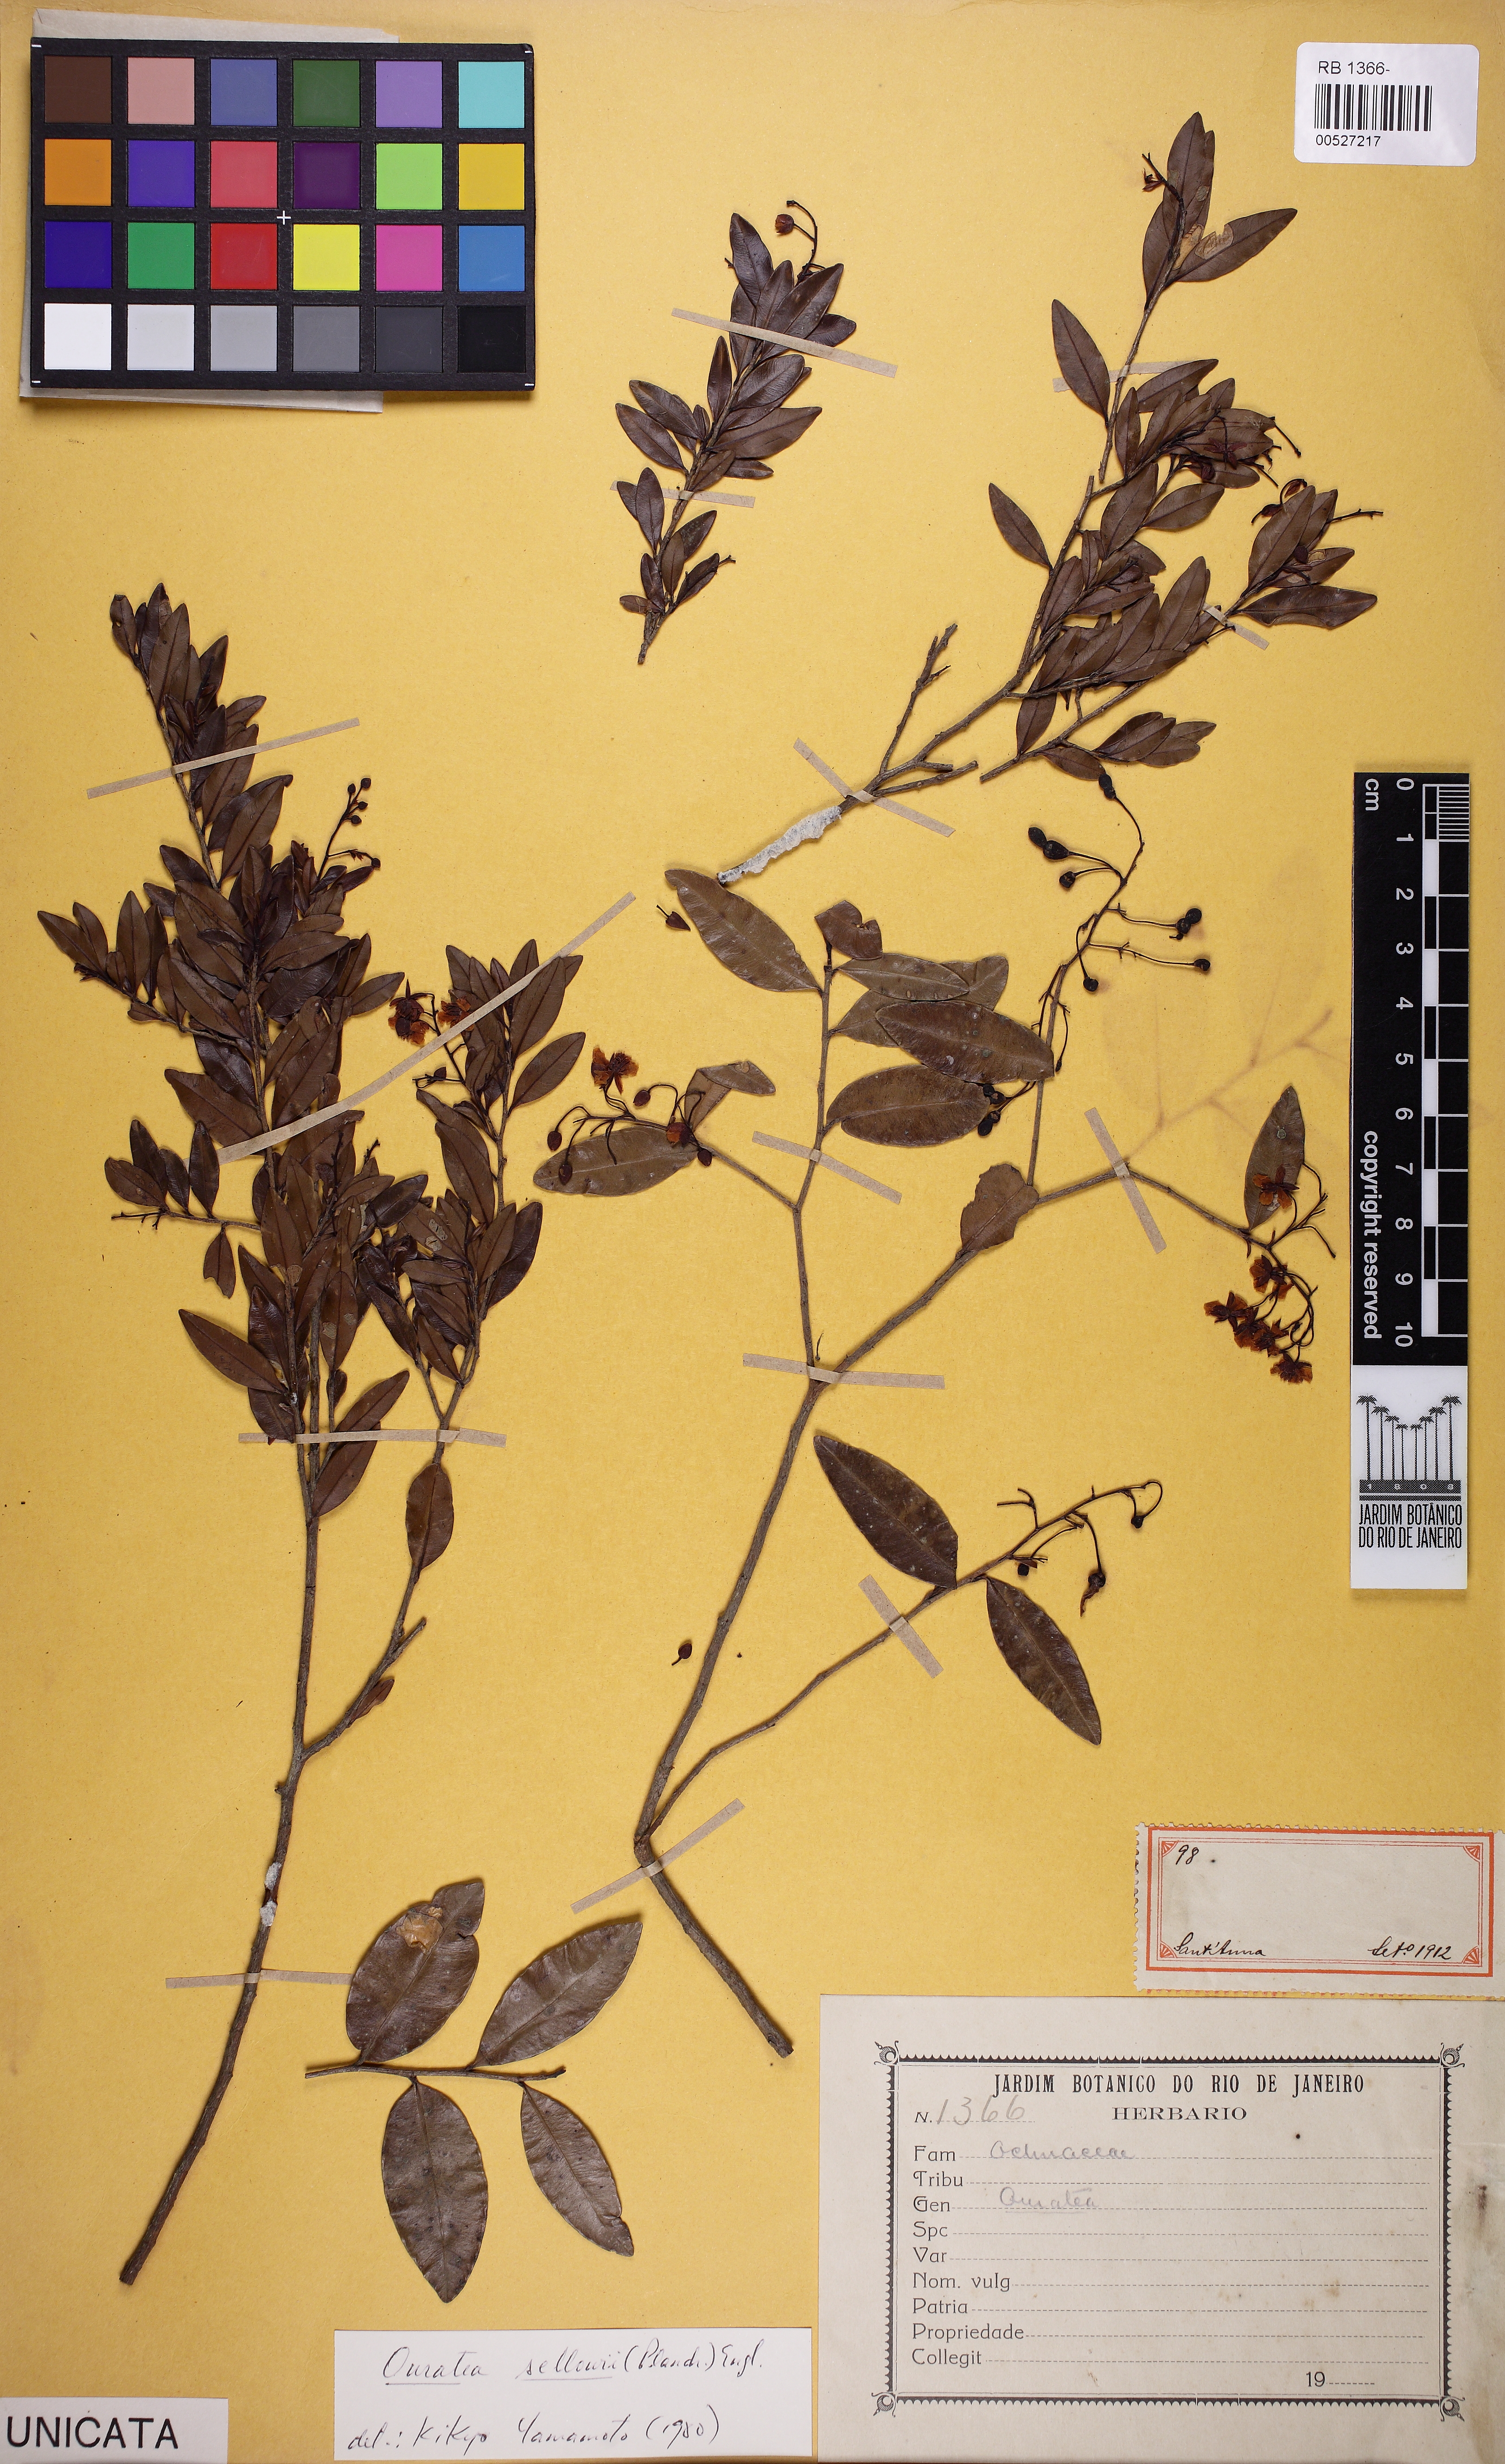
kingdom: Plantae
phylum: Tracheophyta
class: Magnoliopsida
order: Malpighiales
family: Ochnaceae
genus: Ouratea
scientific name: Ouratea sellowii
